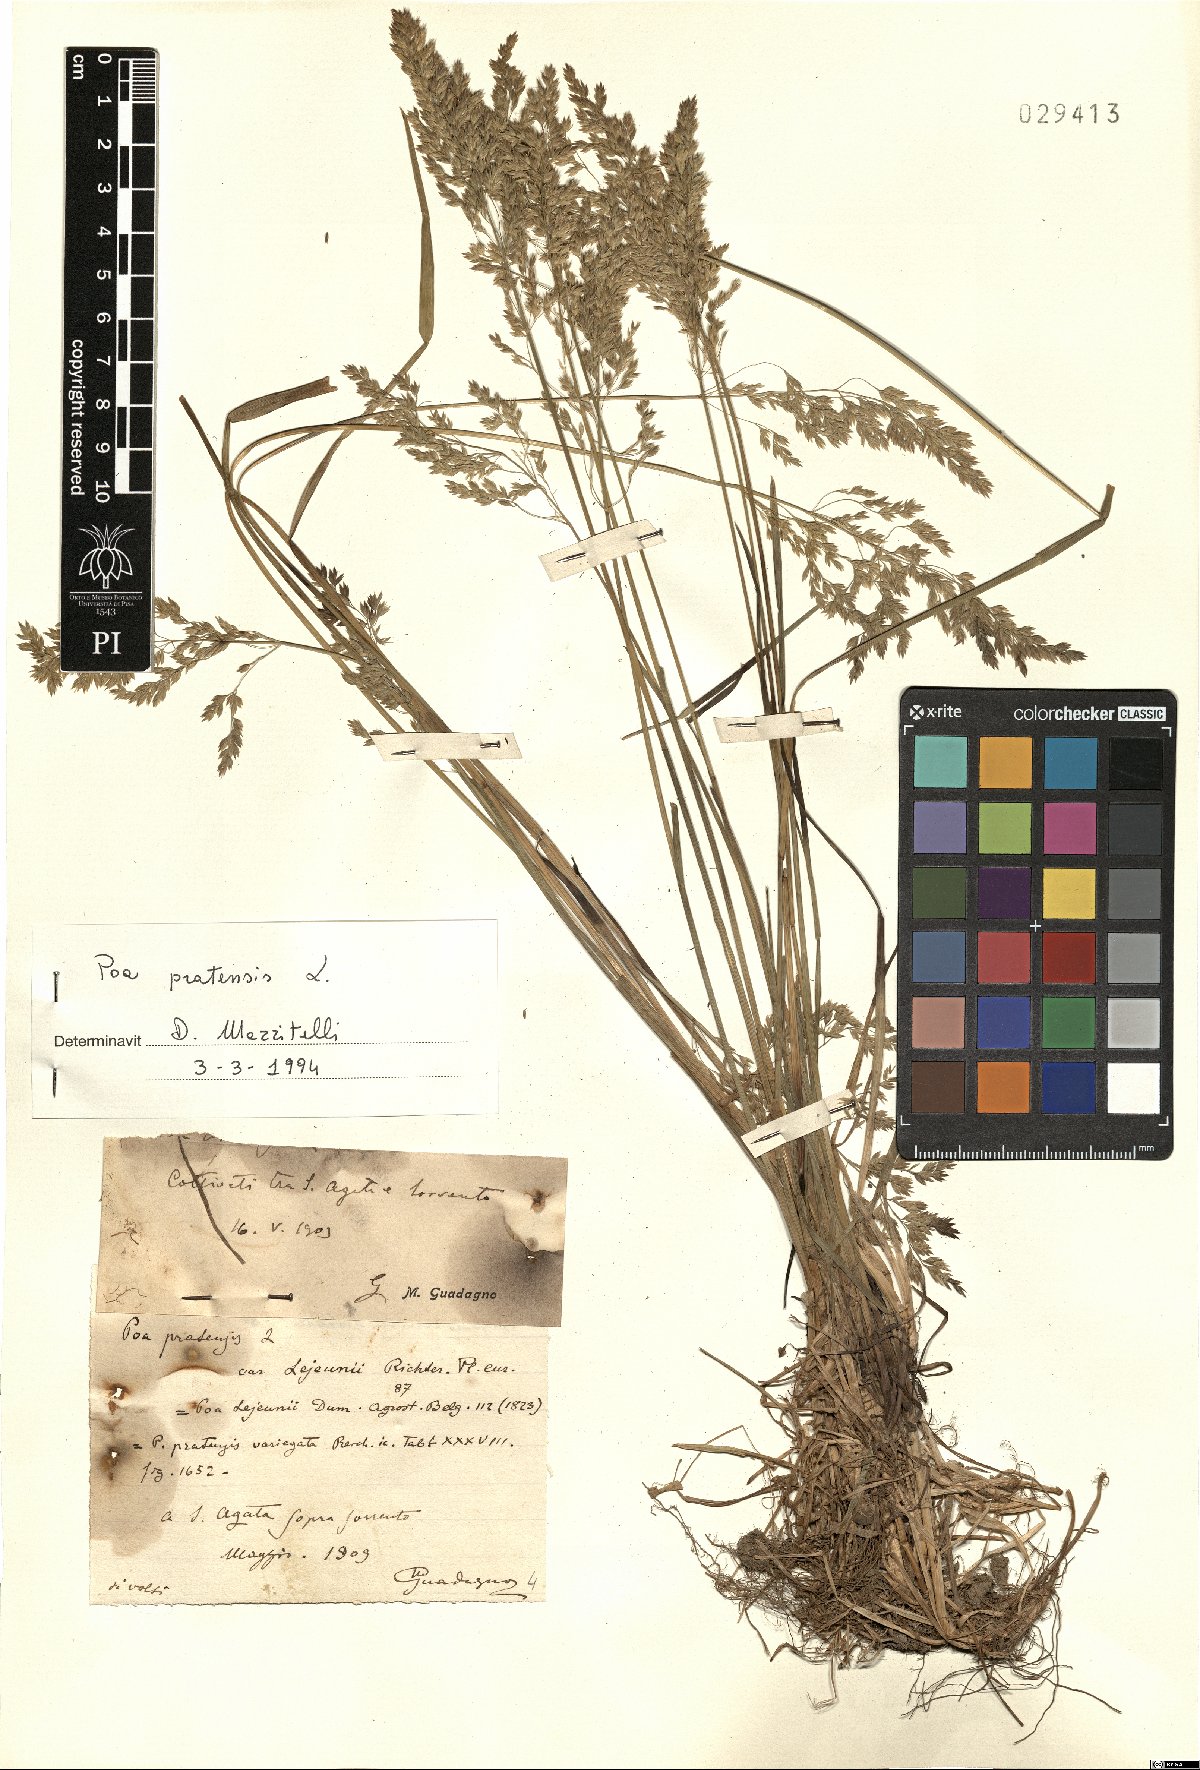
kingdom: Plantae
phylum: Tracheophyta
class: Liliopsida
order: Poales
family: Poaceae
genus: Poa
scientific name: Poa pratensis
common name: Kentucky bluegrass
